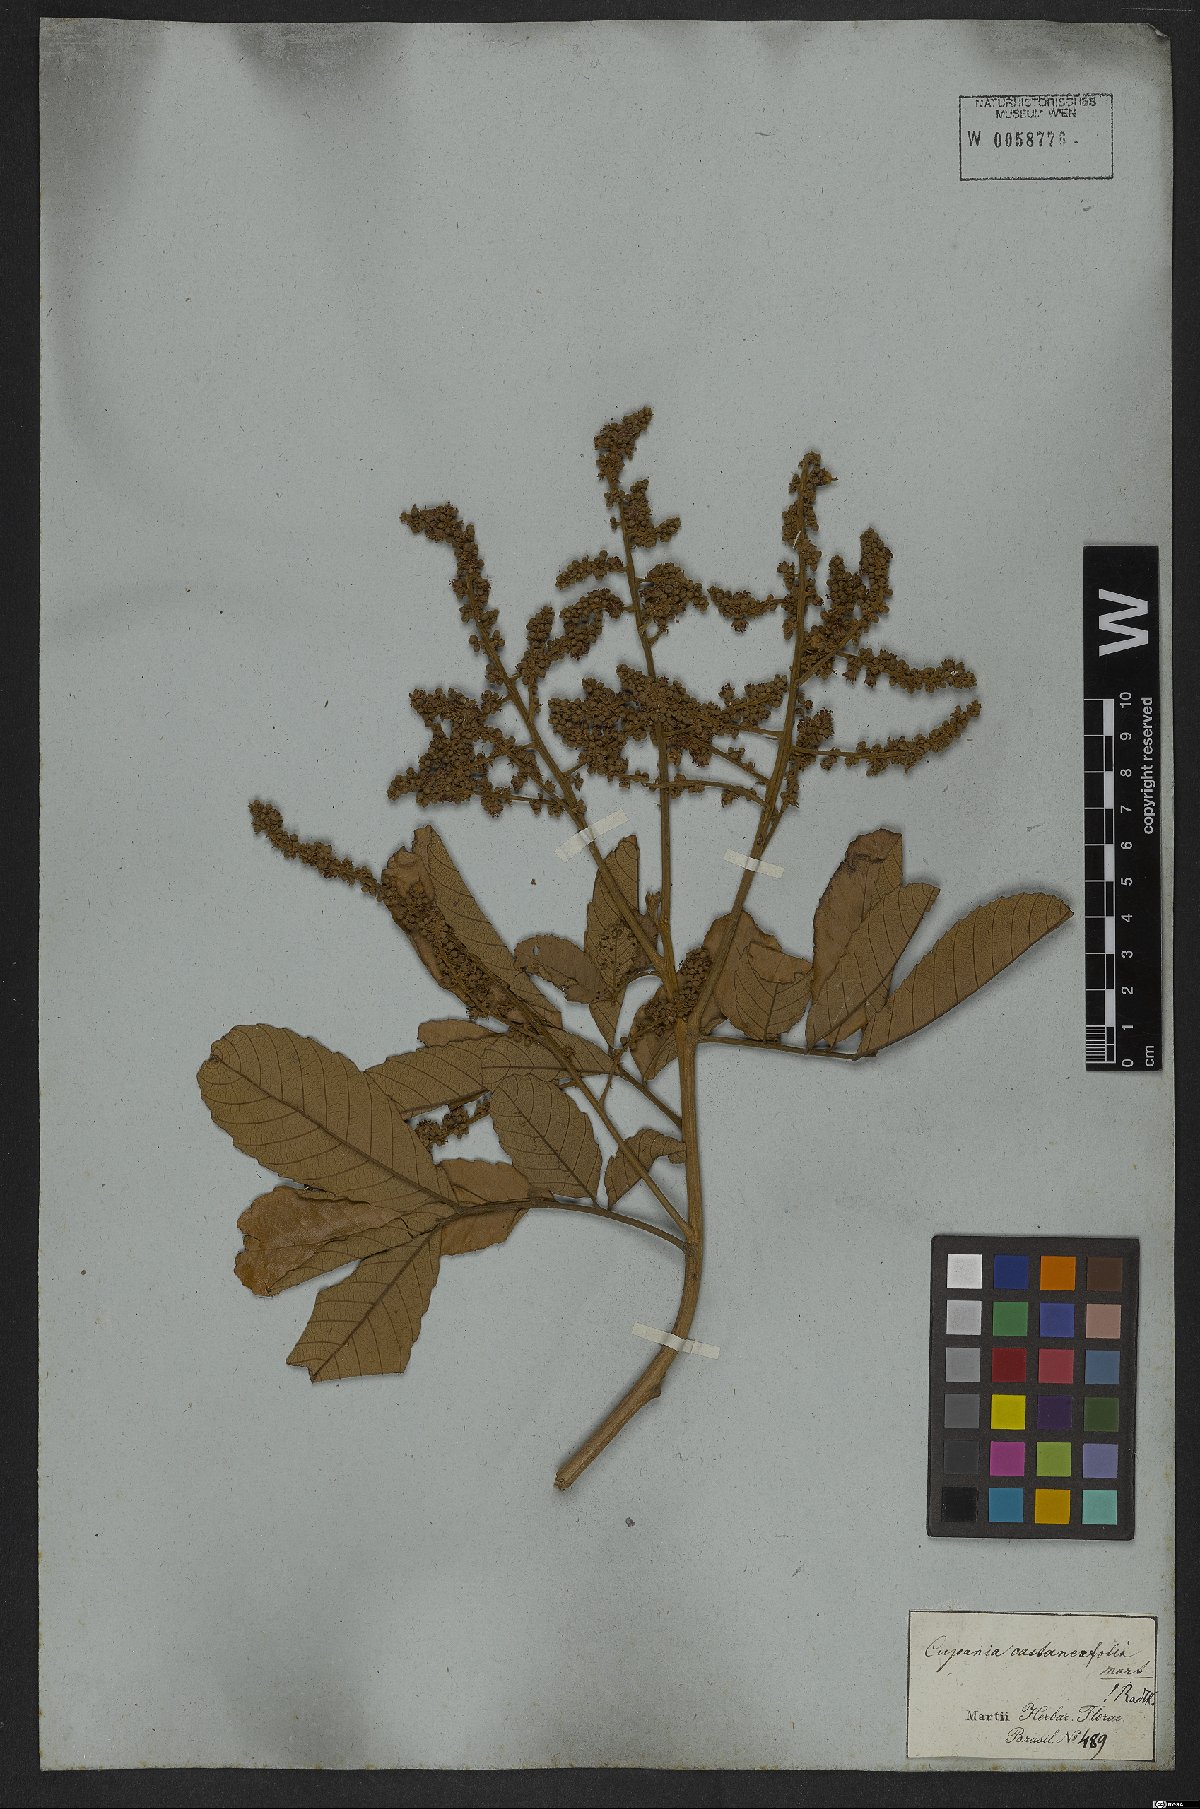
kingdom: Plantae
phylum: Tracheophyta
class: Magnoliopsida
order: Sapindales
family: Sapindaceae
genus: Cupania
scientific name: Cupania castaneifolia
